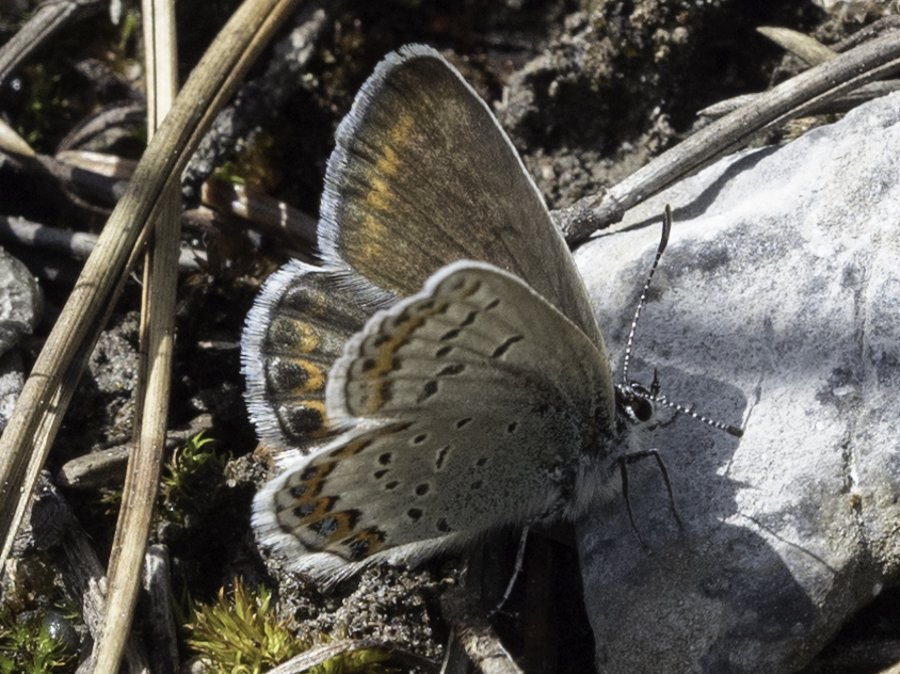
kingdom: Animalia
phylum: Arthropoda
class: Insecta
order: Lepidoptera
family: Lycaenidae
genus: Lycaeides
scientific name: Lycaeides idas
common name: Northern Blue
